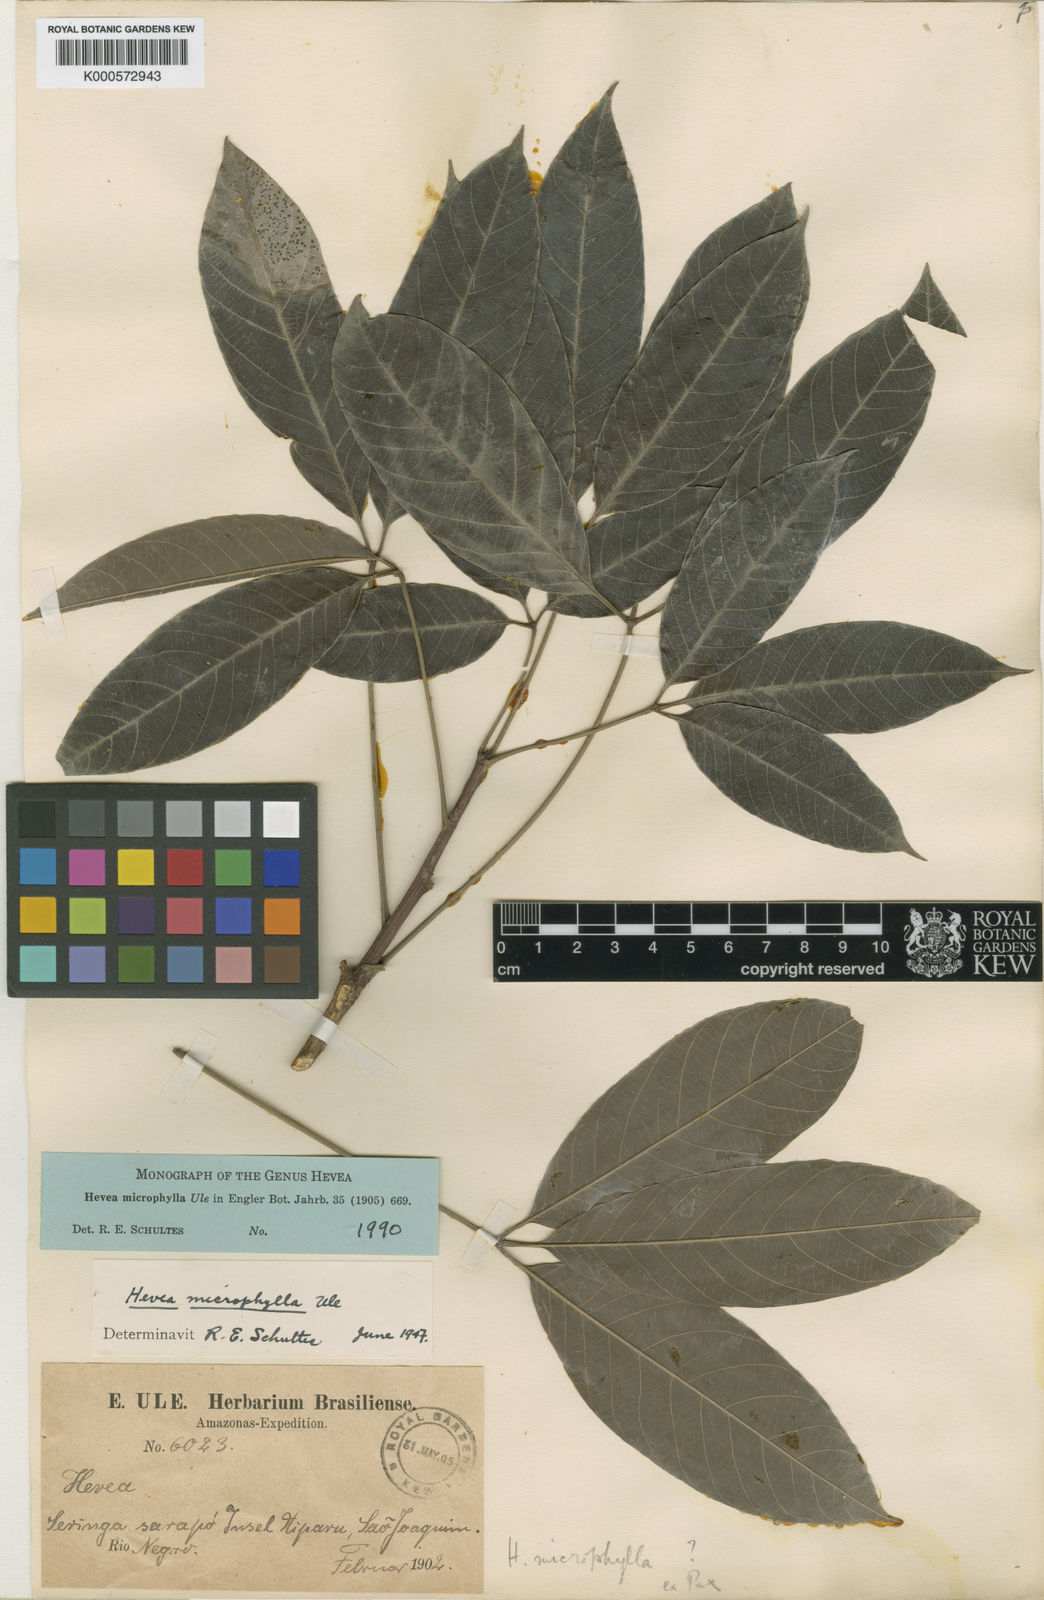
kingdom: Plantae
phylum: Tracheophyta
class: Magnoliopsida
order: Malpighiales
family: Euphorbiaceae
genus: Hevea
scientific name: Hevea microphylla
